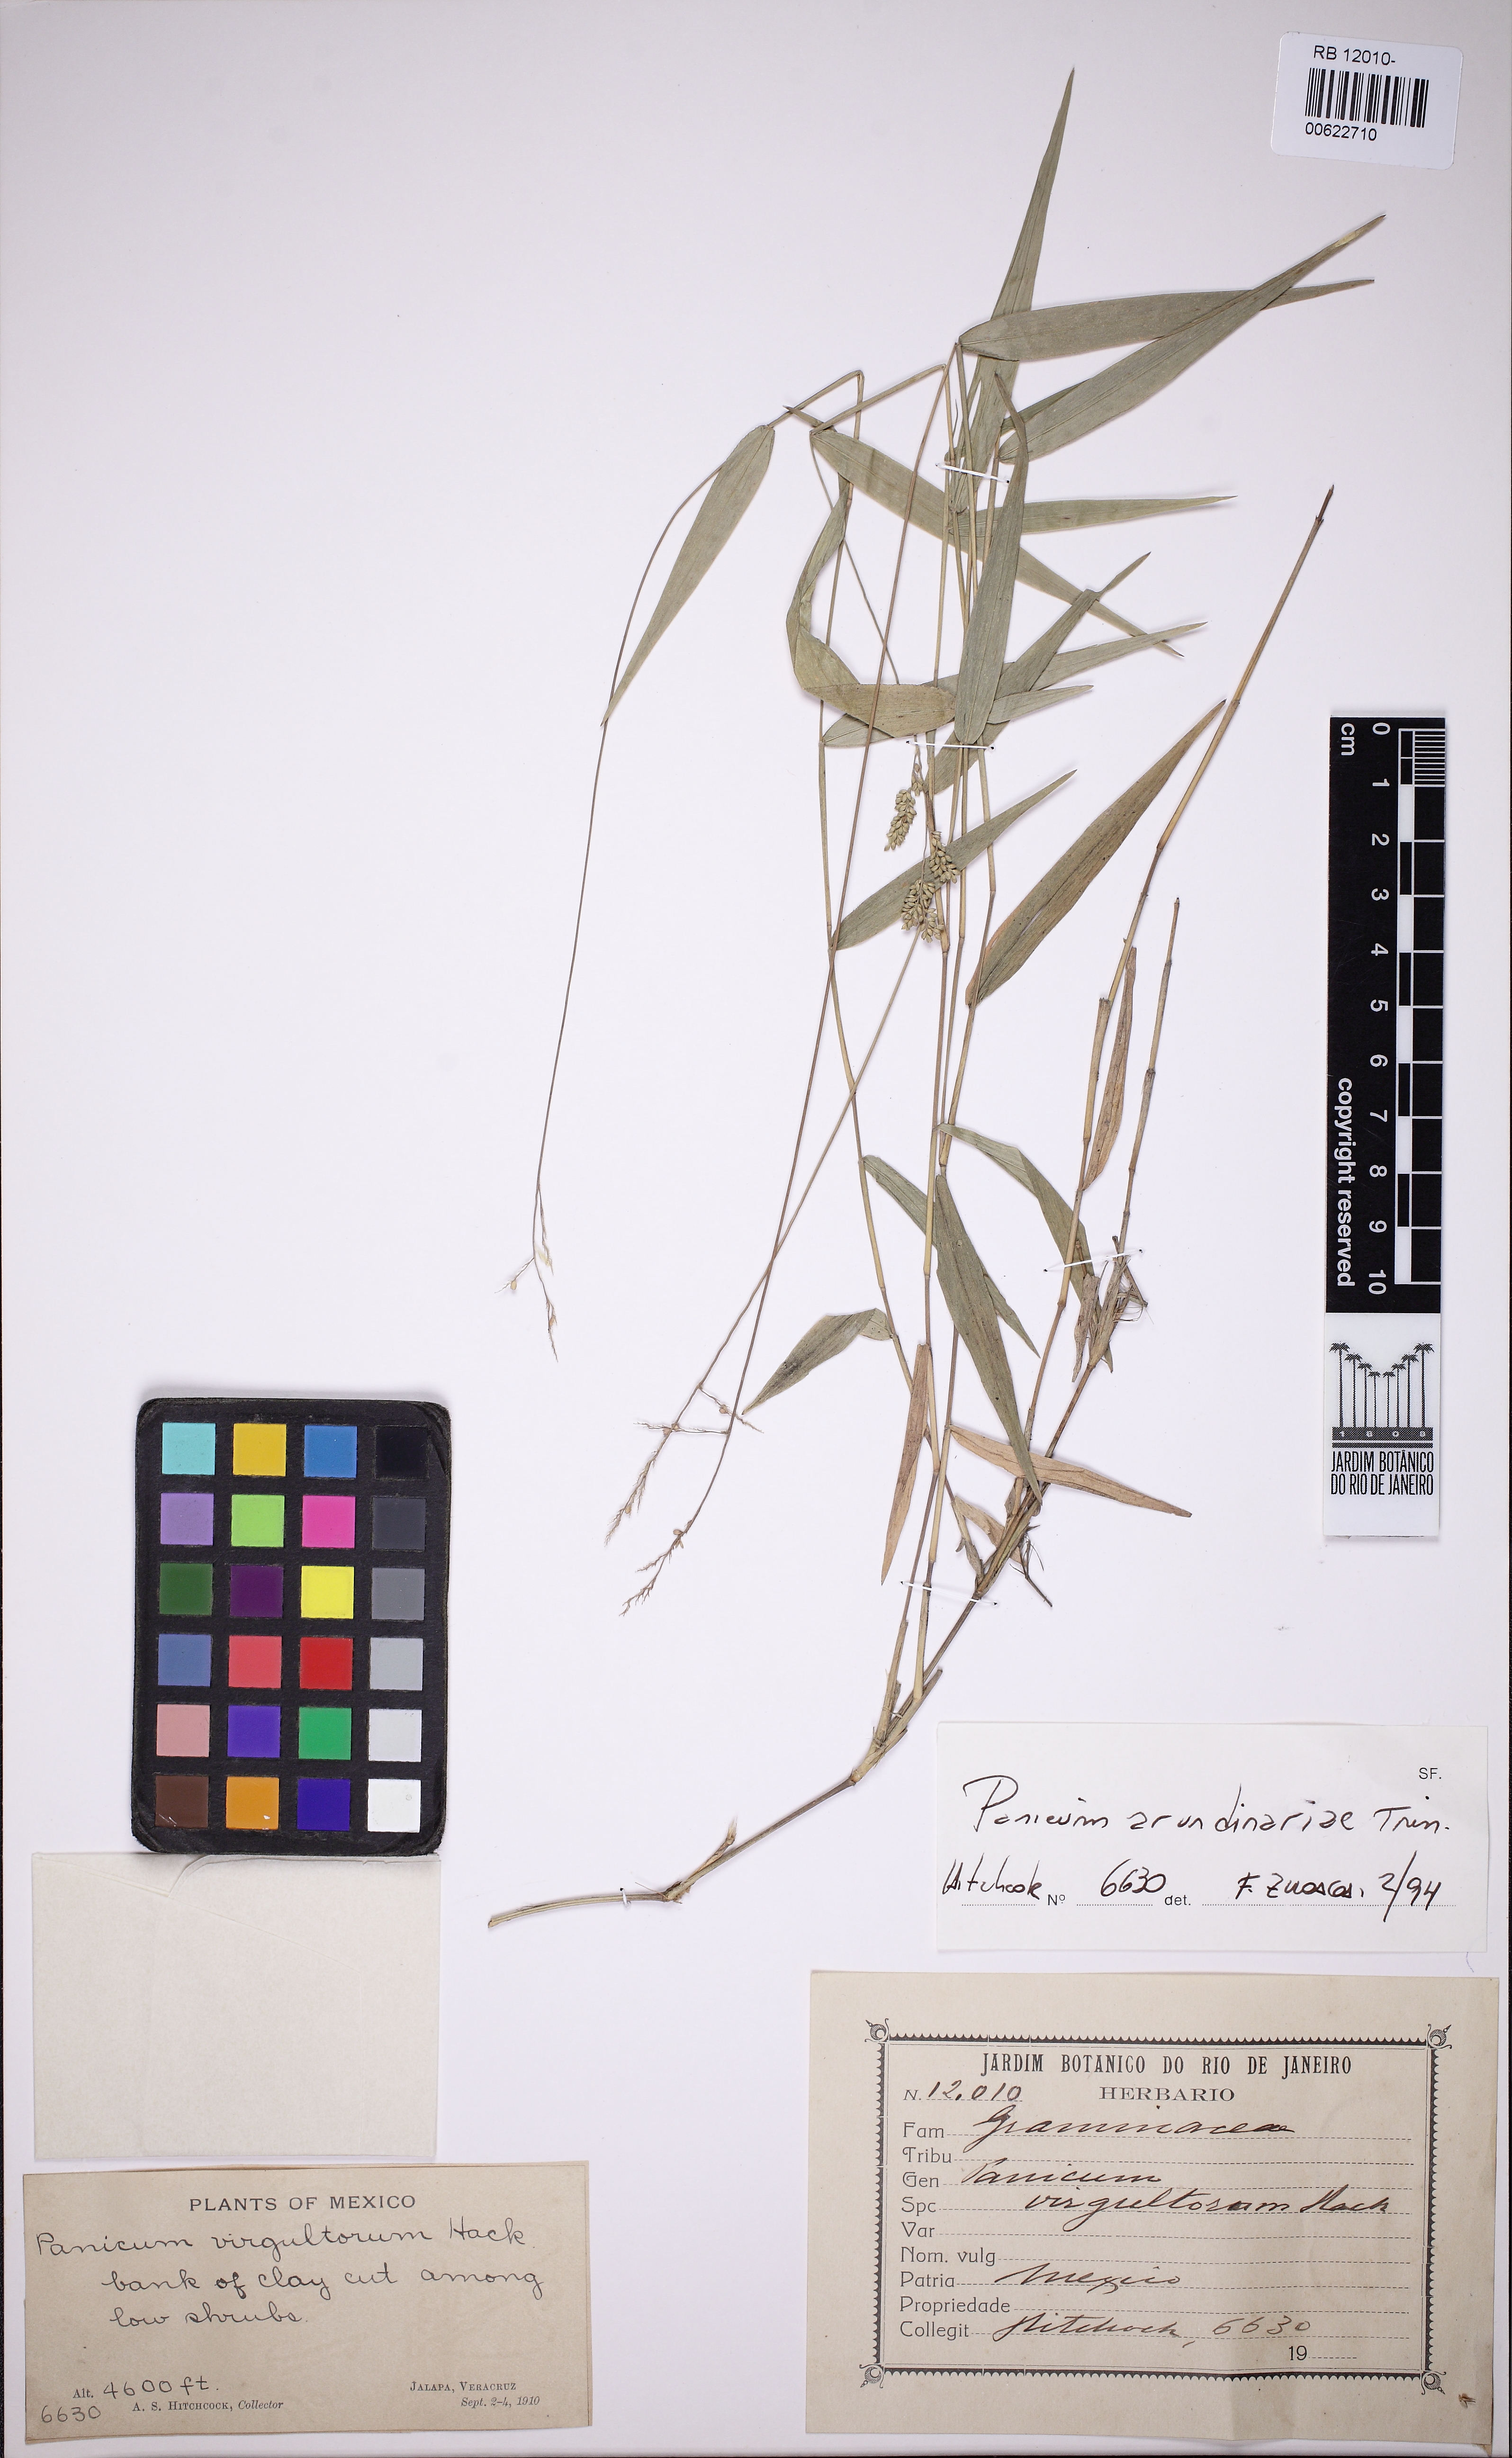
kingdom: Plantae
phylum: Tracheophyta
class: Liliopsida
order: Poales
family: Poaceae
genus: Morronea
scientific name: Morronea arundinariae
